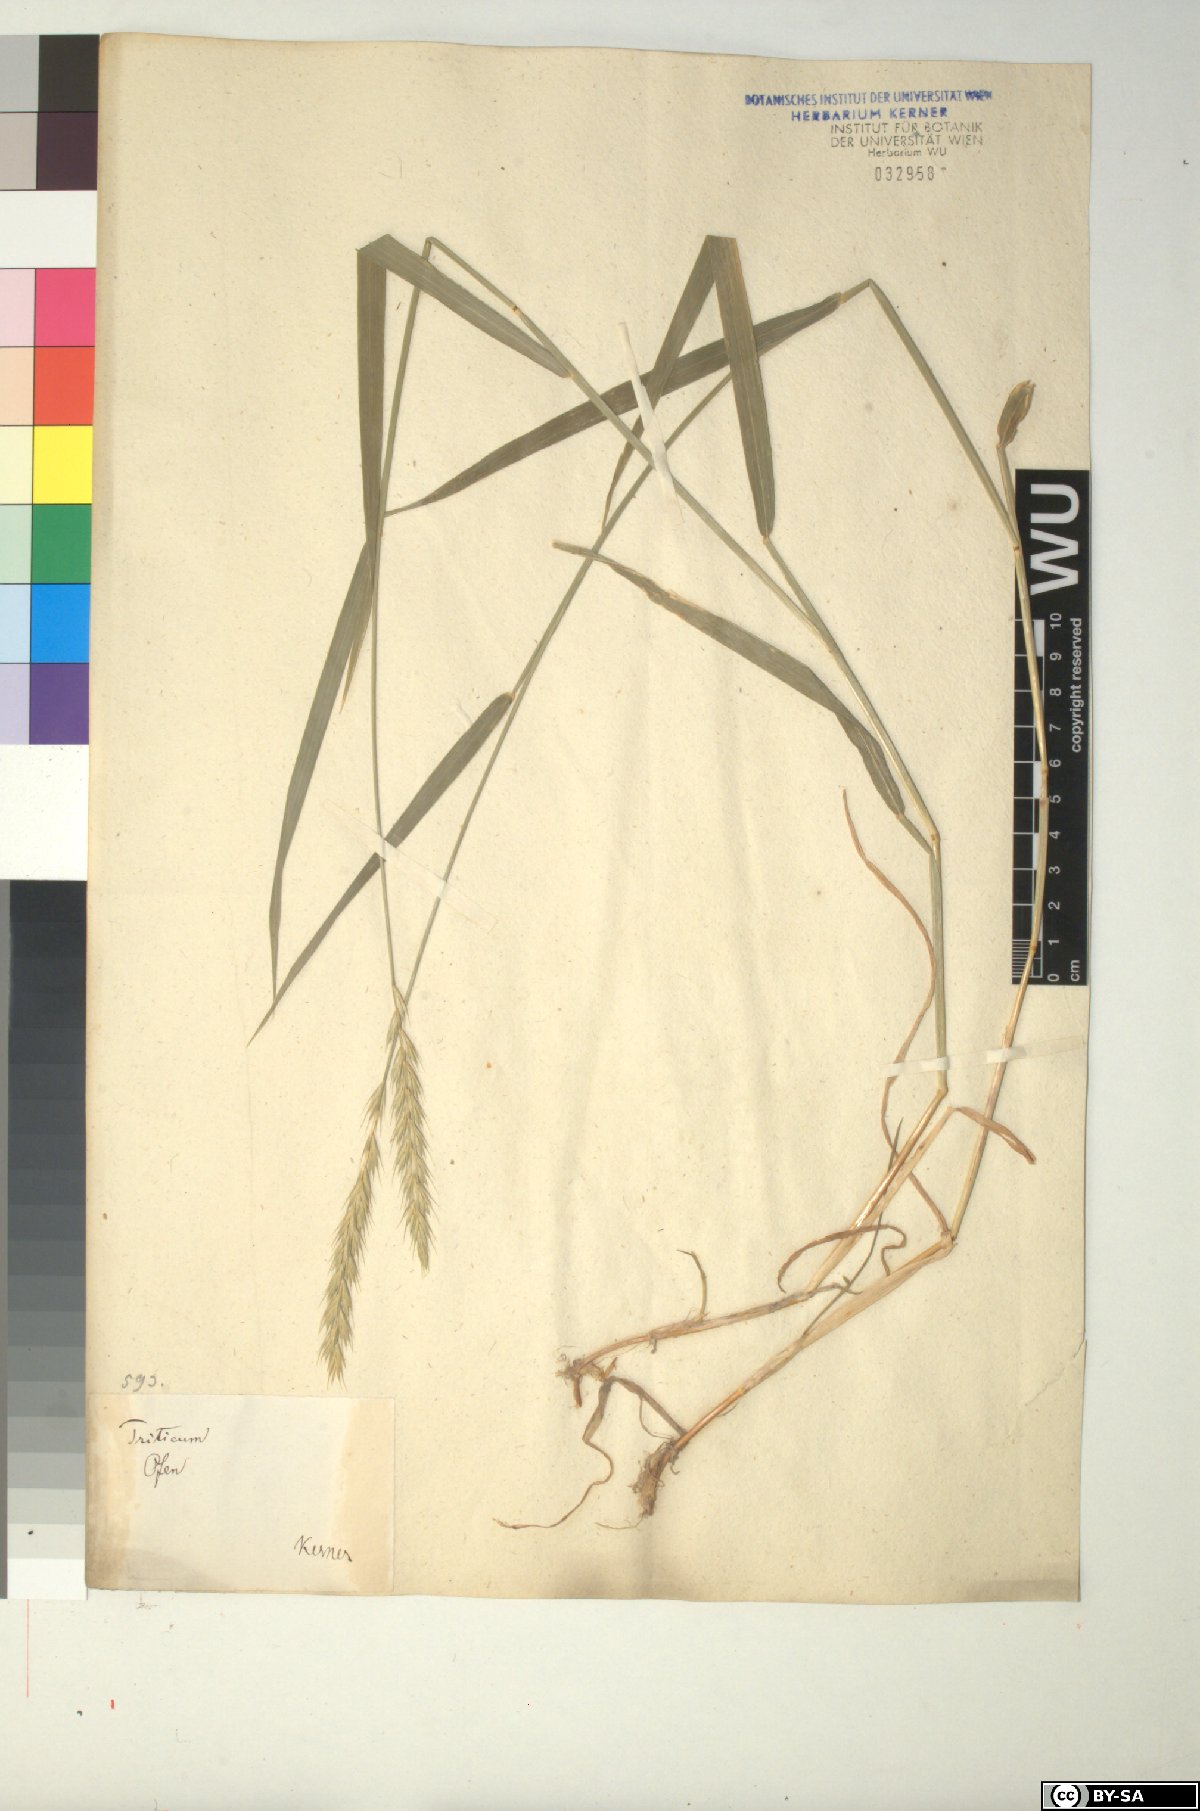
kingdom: Plantae
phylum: Tracheophyta
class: Liliopsida
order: Poales
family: Poaceae
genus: Elymus
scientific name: Elymus repens
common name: Quackgrass
